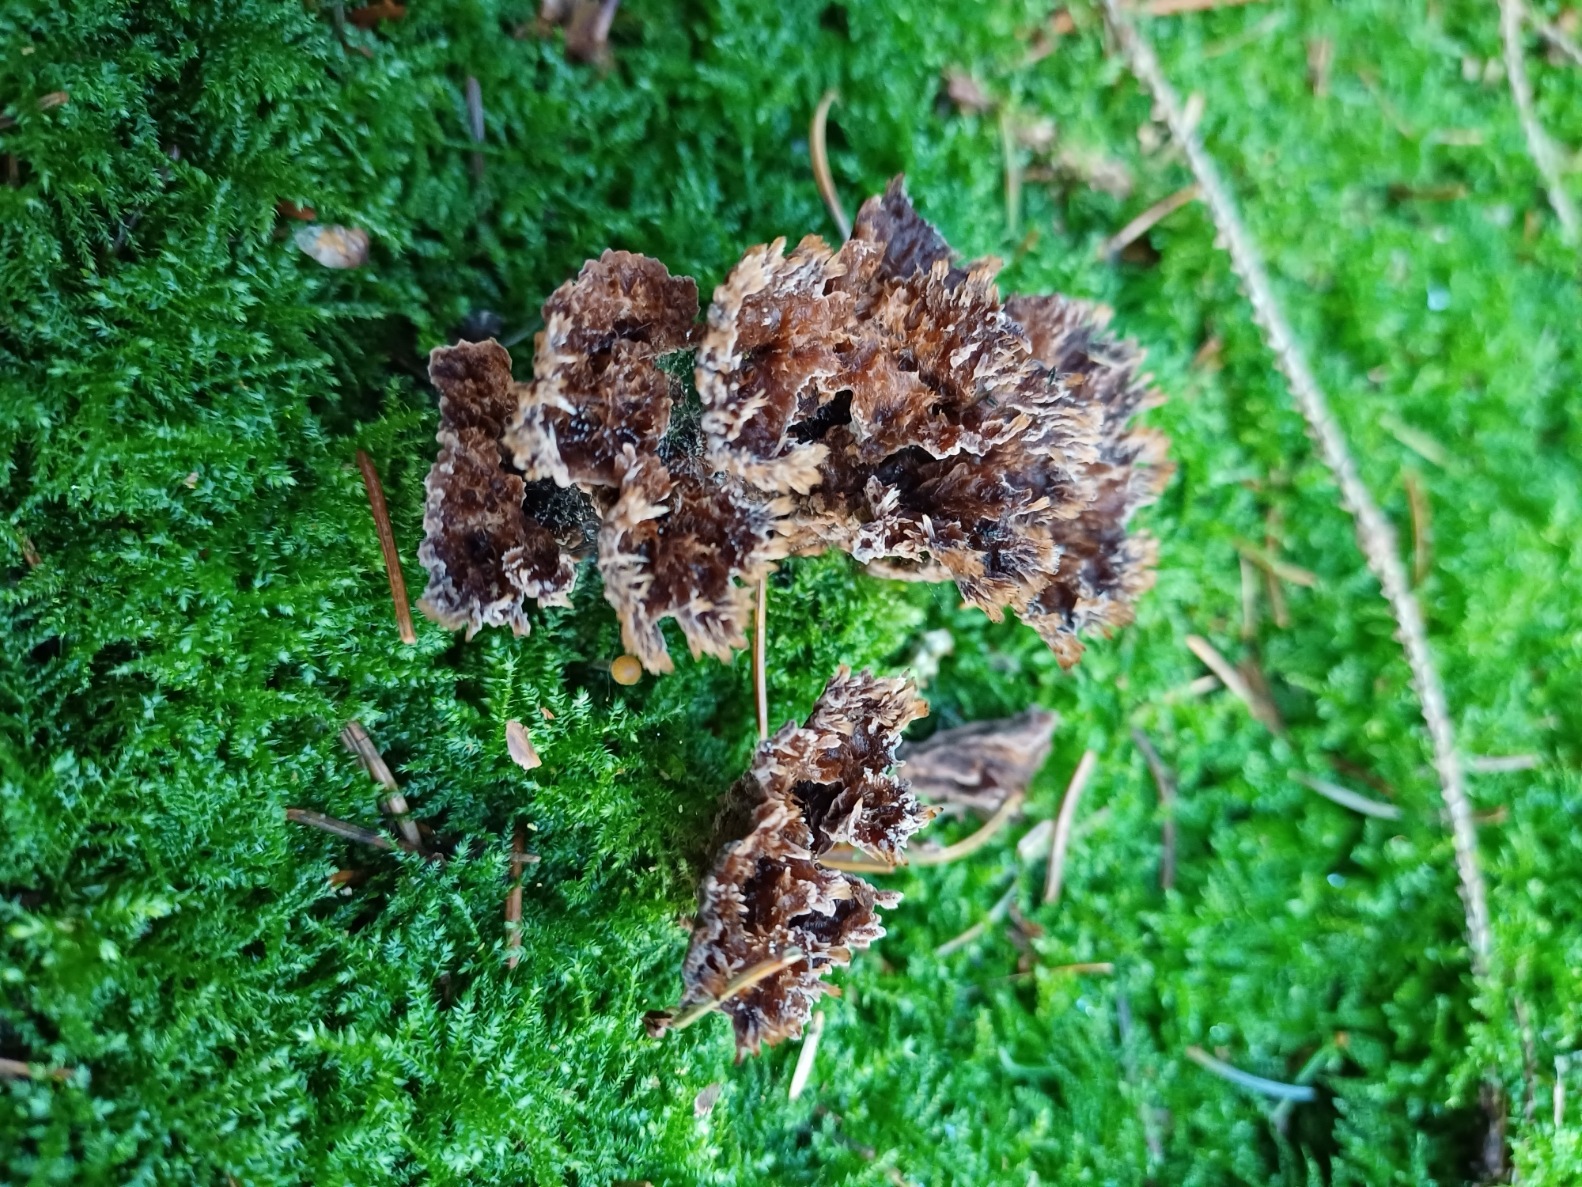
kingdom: Fungi
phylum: Basidiomycota
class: Agaricomycetes
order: Thelephorales
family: Thelephoraceae
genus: Thelephora
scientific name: Thelephora terrestris
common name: fliget frynsesvamp
